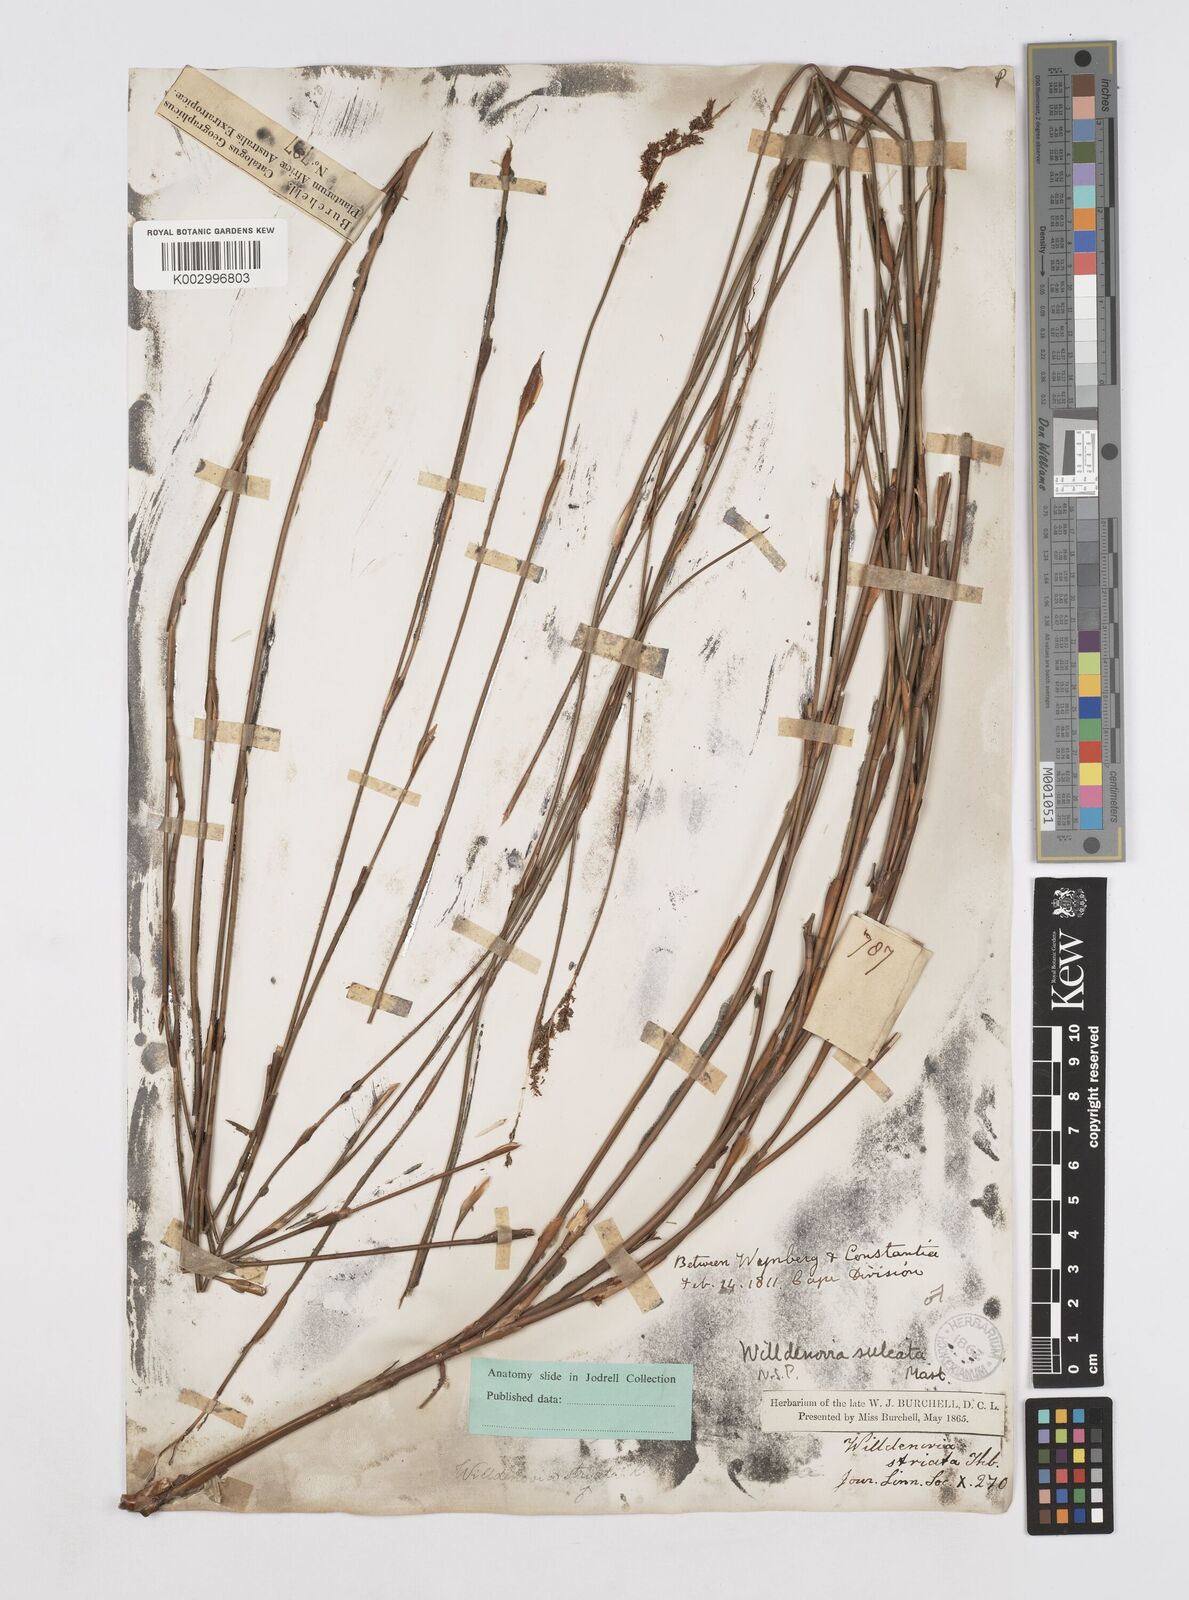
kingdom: Plantae
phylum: Tracheophyta
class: Liliopsida
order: Poales
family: Restionaceae
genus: Willdenowia
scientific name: Willdenowia sulcata
